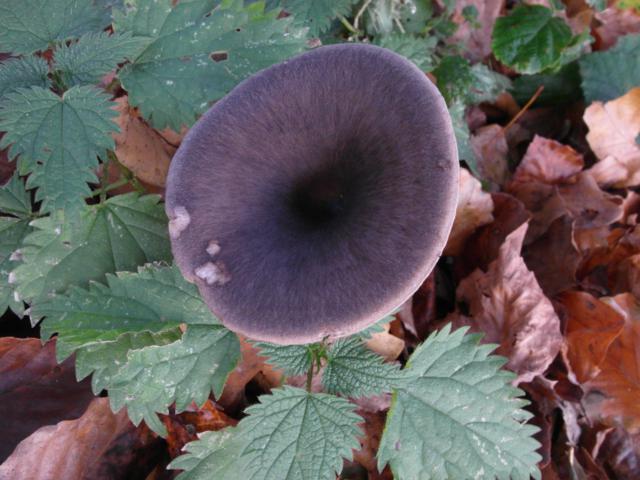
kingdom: Fungi
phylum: Basidiomycota
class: Agaricomycetes
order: Agaricales
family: Pseudoclitocybaceae
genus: Pseudoclitocybe
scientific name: Pseudoclitocybe cyathiformis
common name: almindelig bægertragthat
